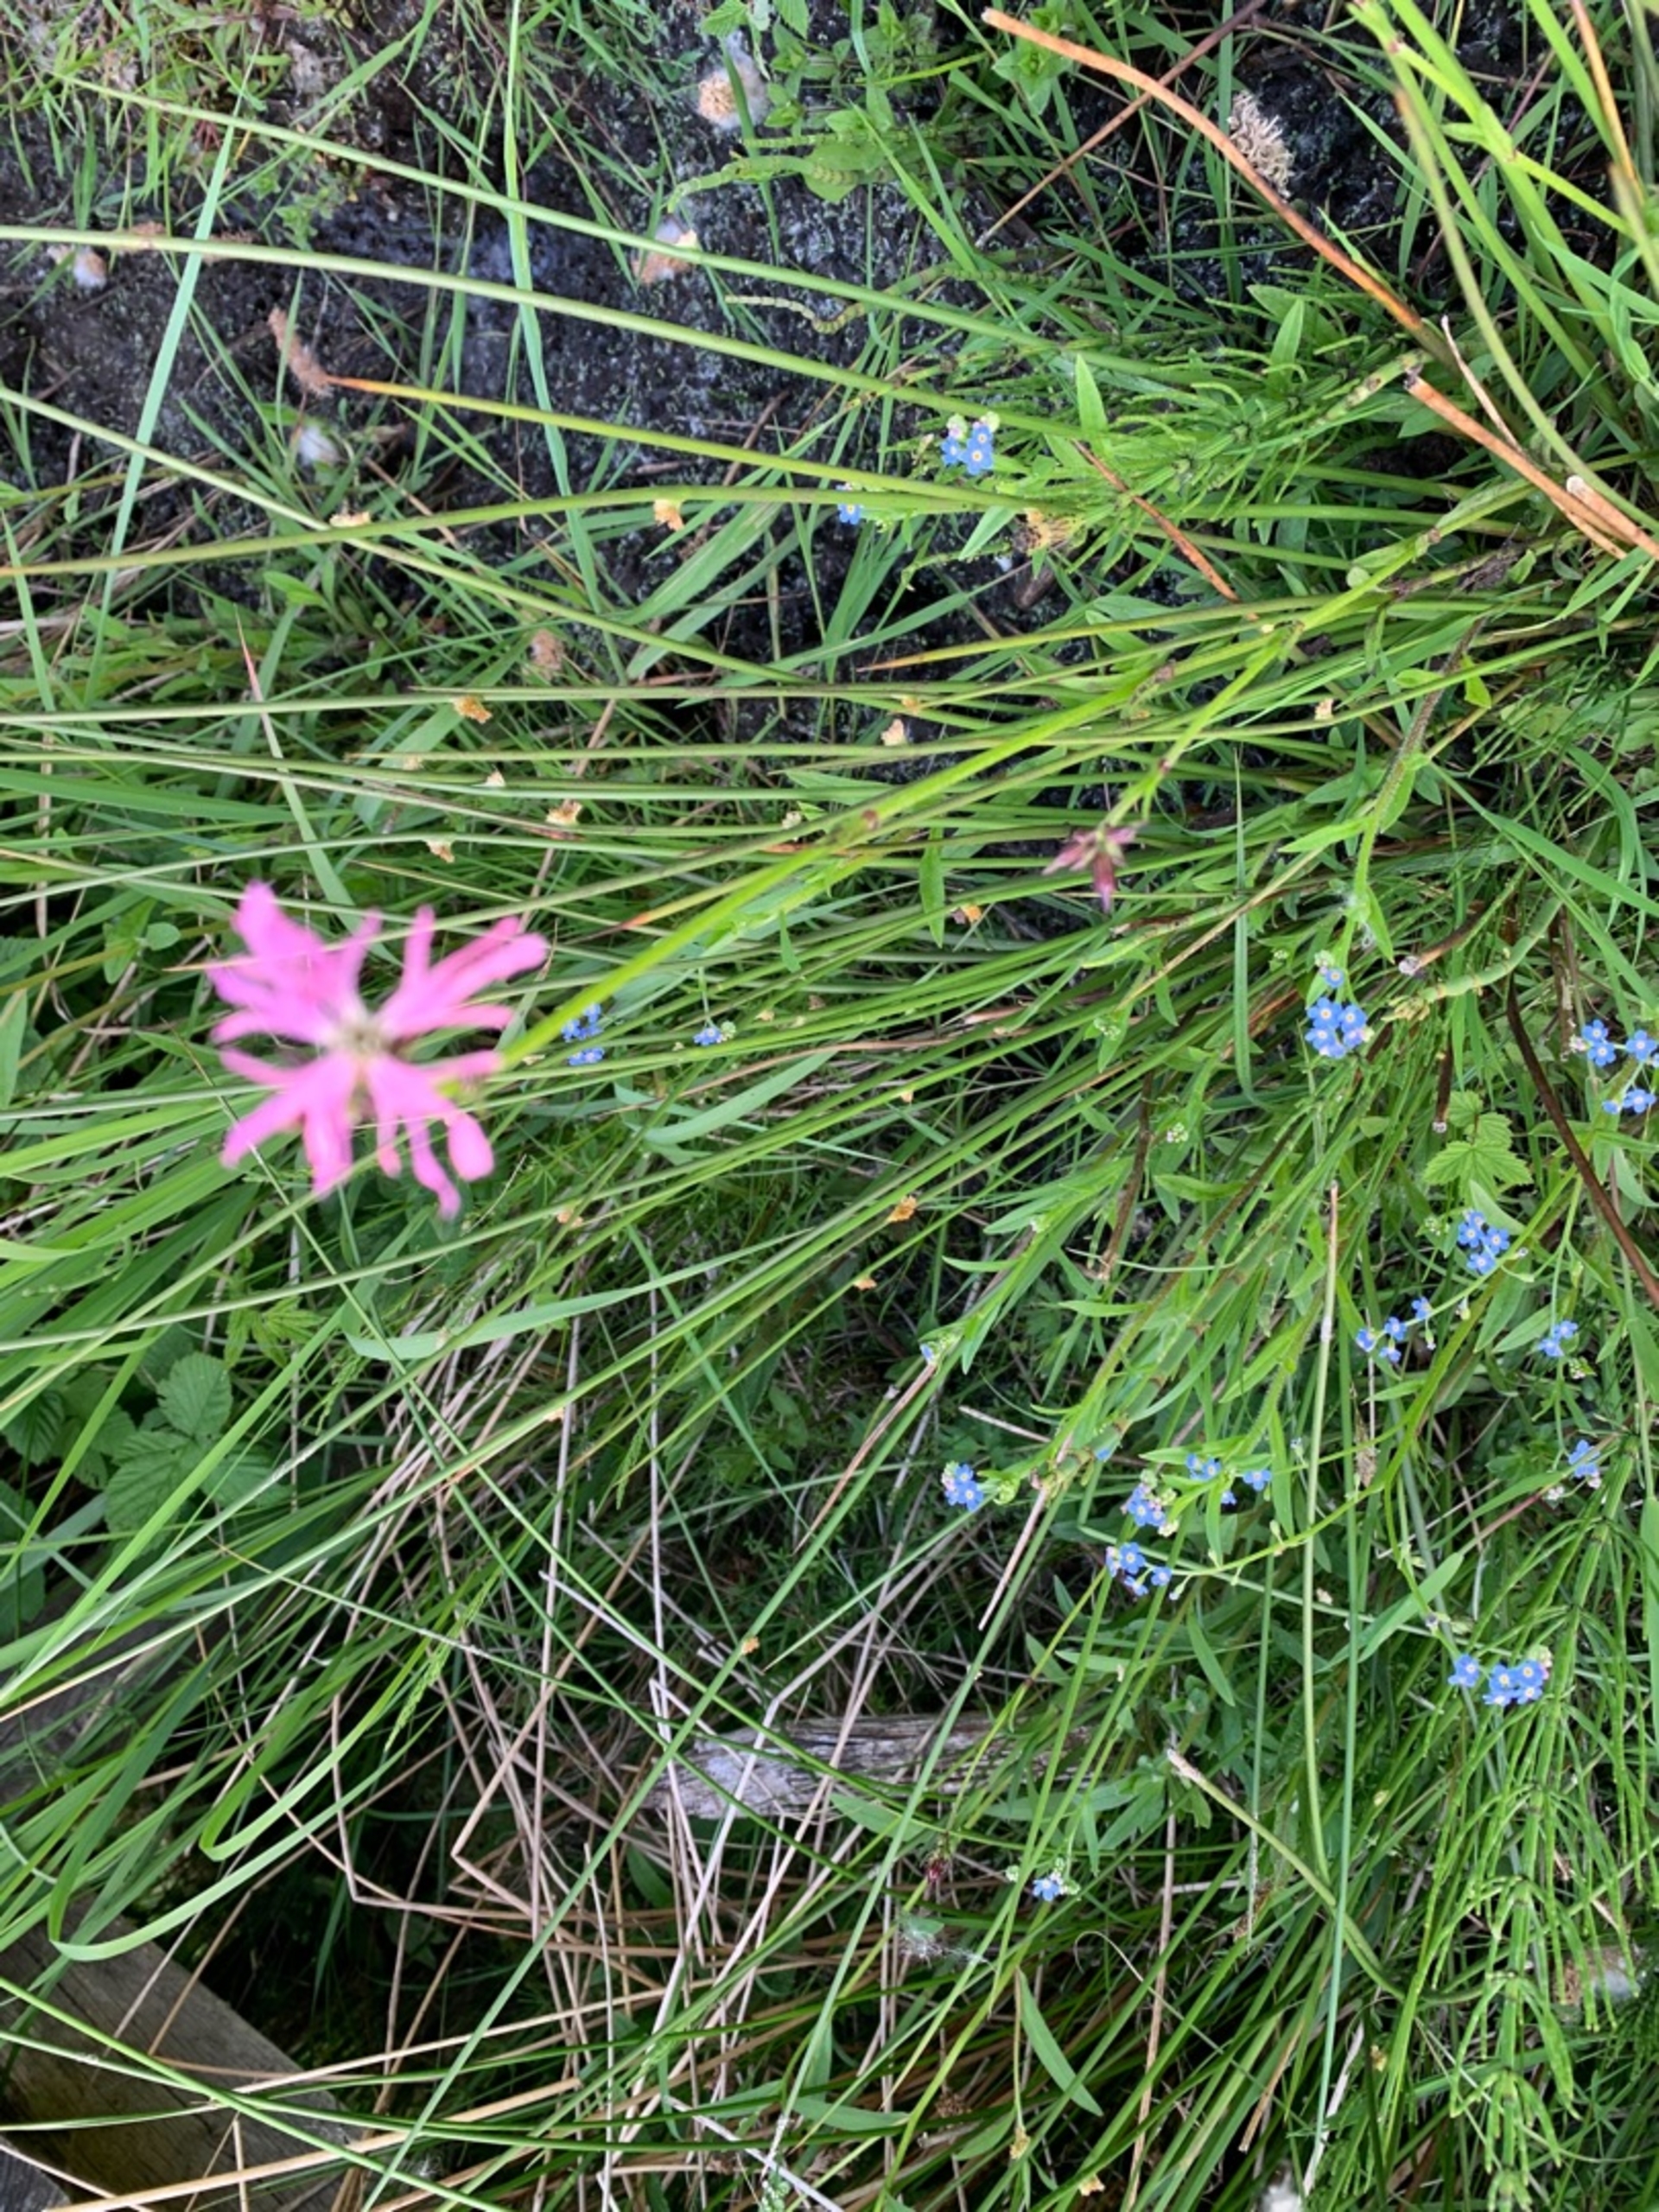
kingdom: Plantae
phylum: Tracheophyta
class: Magnoliopsida
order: Caryophyllales
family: Caryophyllaceae
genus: Silene
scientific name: Silene flos-cuculi
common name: Trævlekrone
